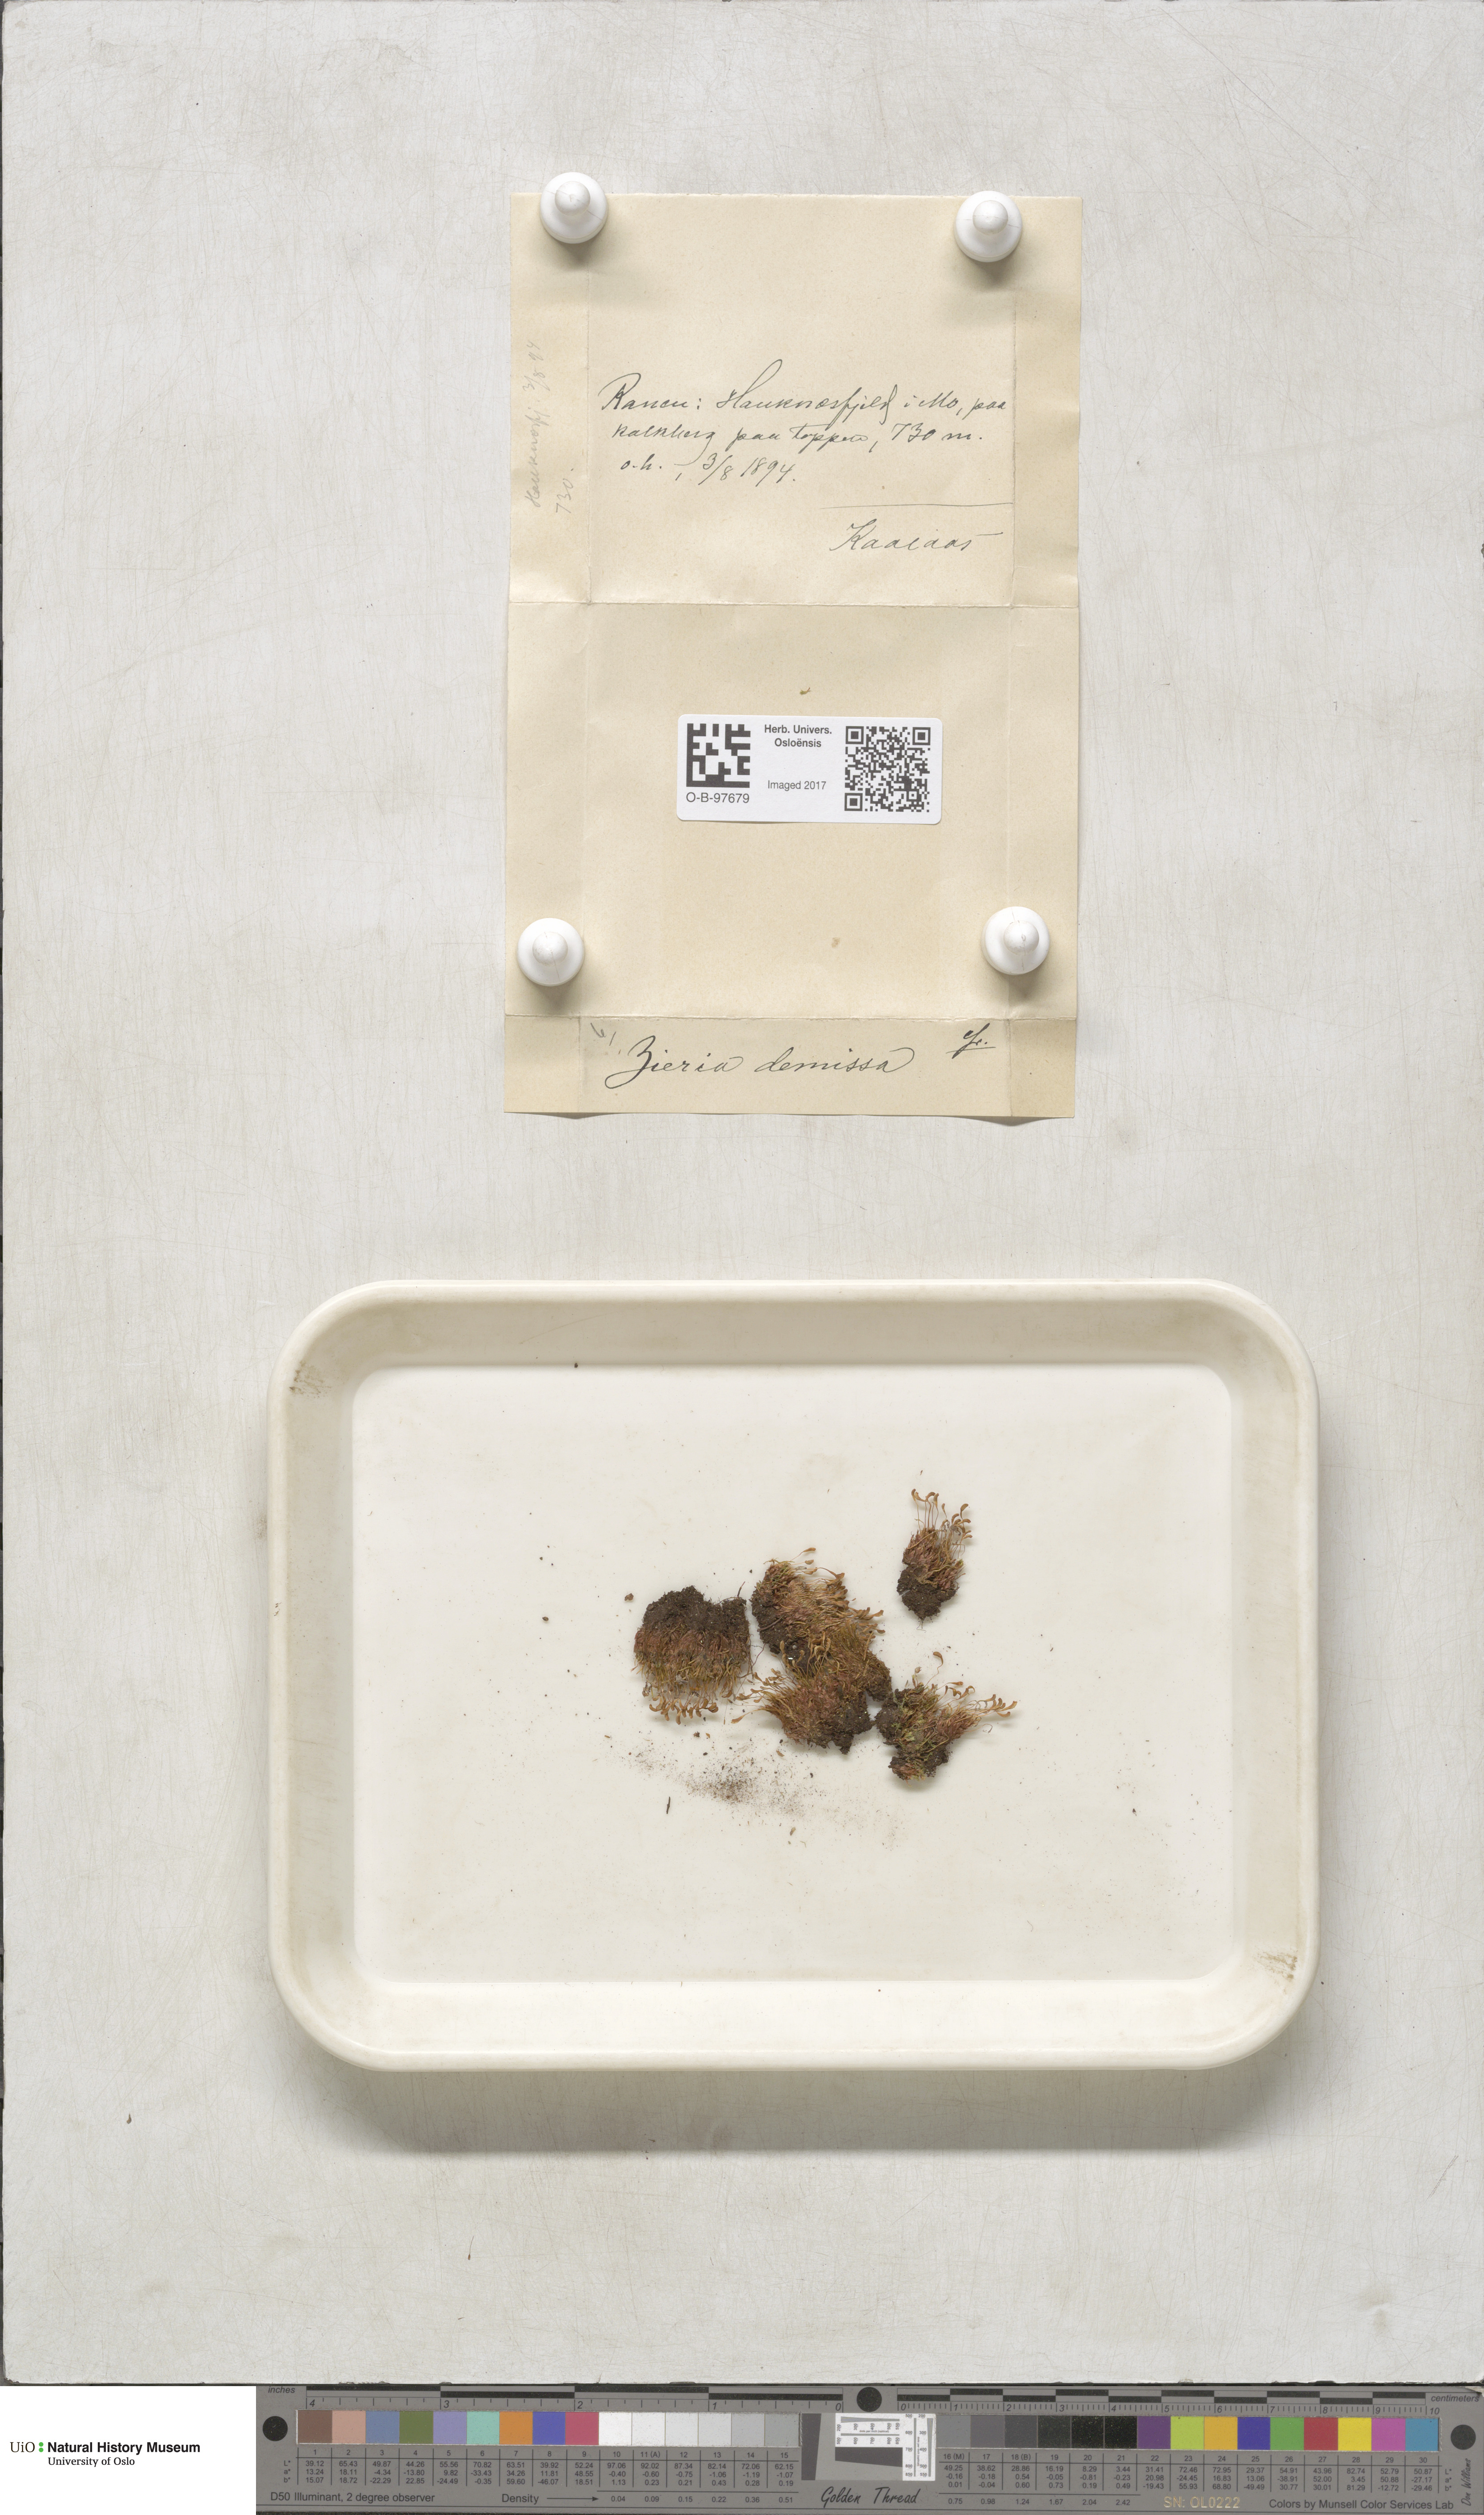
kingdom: Plantae
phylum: Bryophyta
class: Bryopsida
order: Bryales
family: Bryaceae
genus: Plagiobryum
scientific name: Plagiobryum demissum
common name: Drooping hump moss
